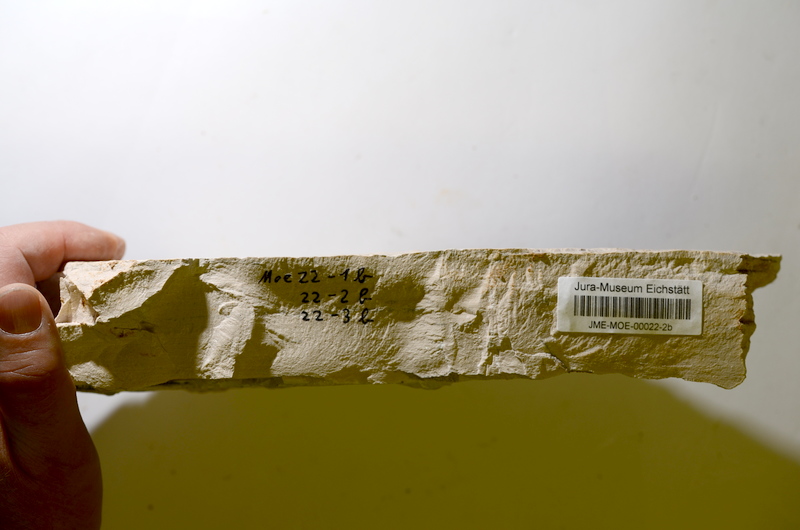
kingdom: Animalia
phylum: Chordata
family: Ascalaboidae
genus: Tharsis
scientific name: Tharsis
